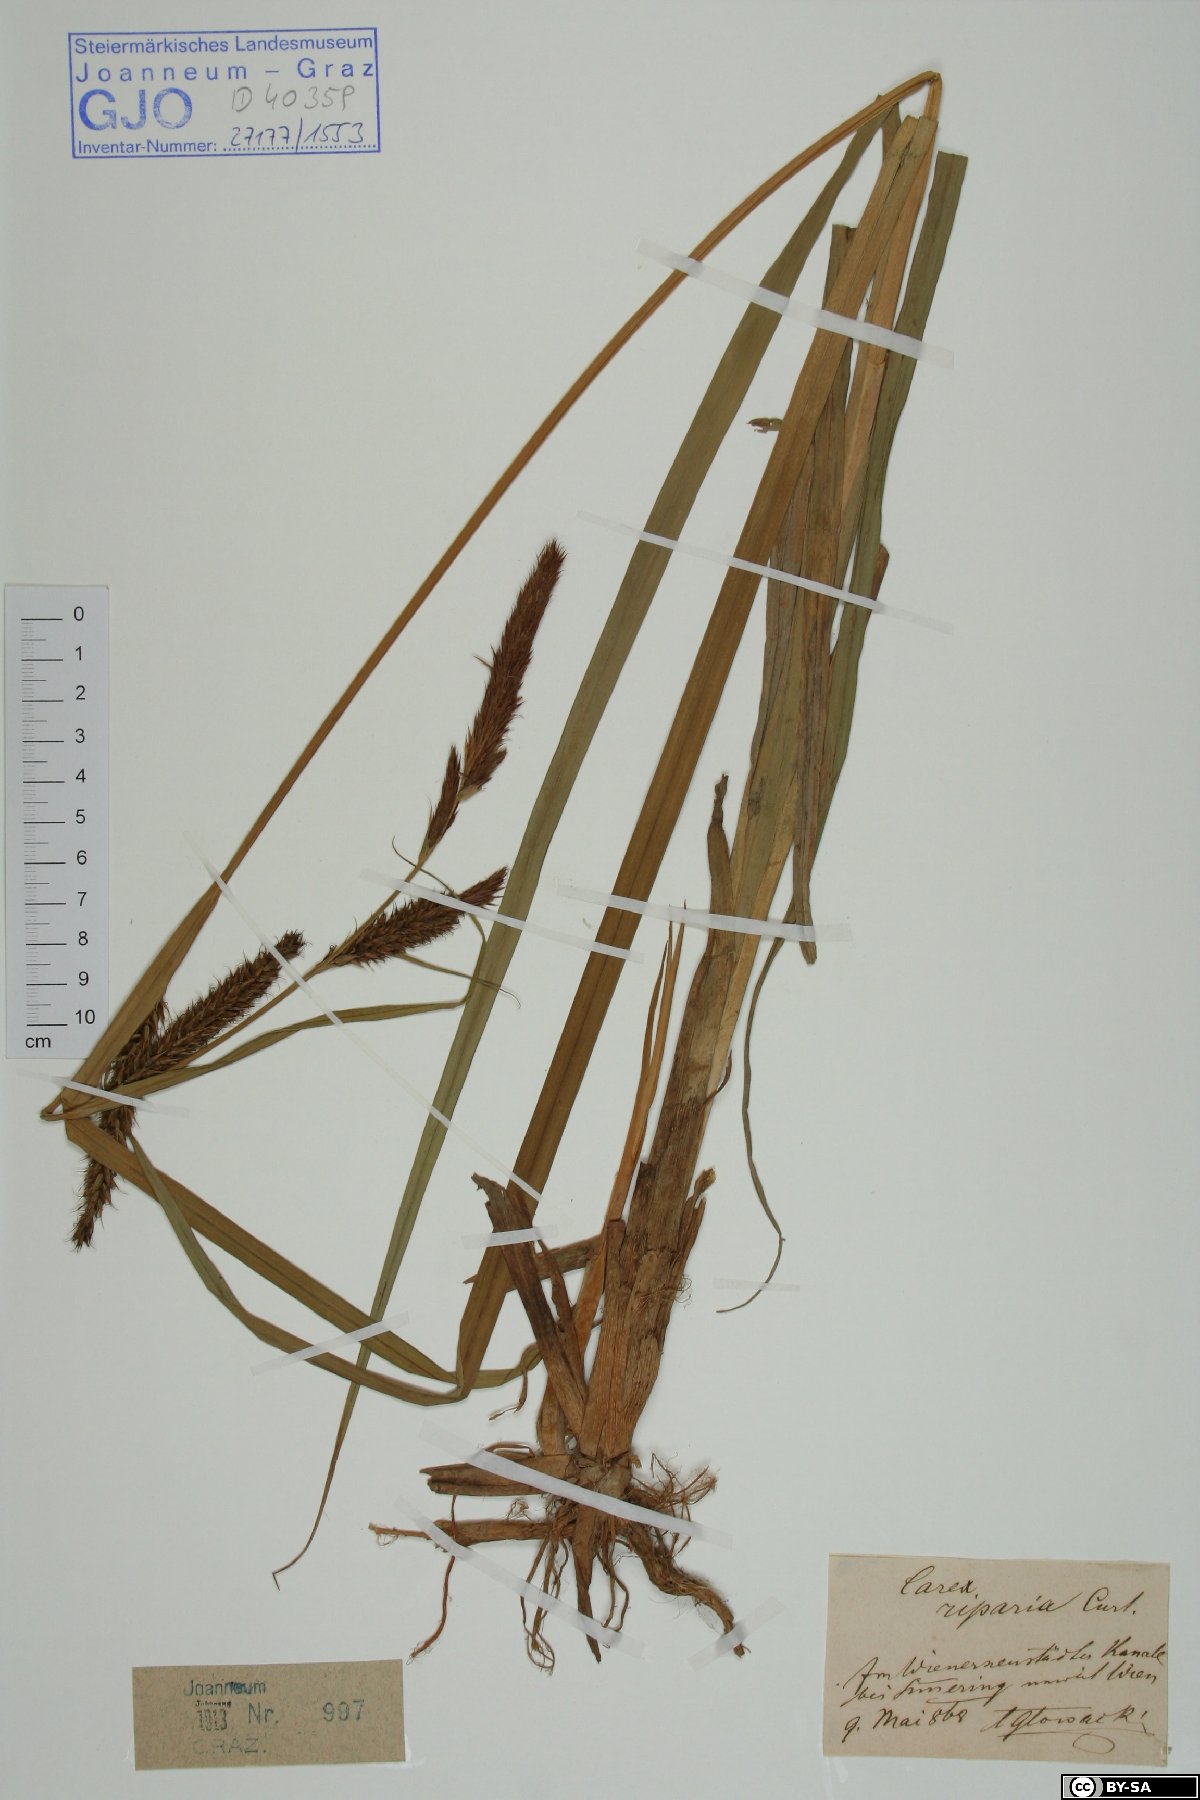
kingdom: Plantae
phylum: Tracheophyta
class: Liliopsida
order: Poales
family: Cyperaceae
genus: Carex
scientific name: Carex riparia
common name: Greater pond-sedge
